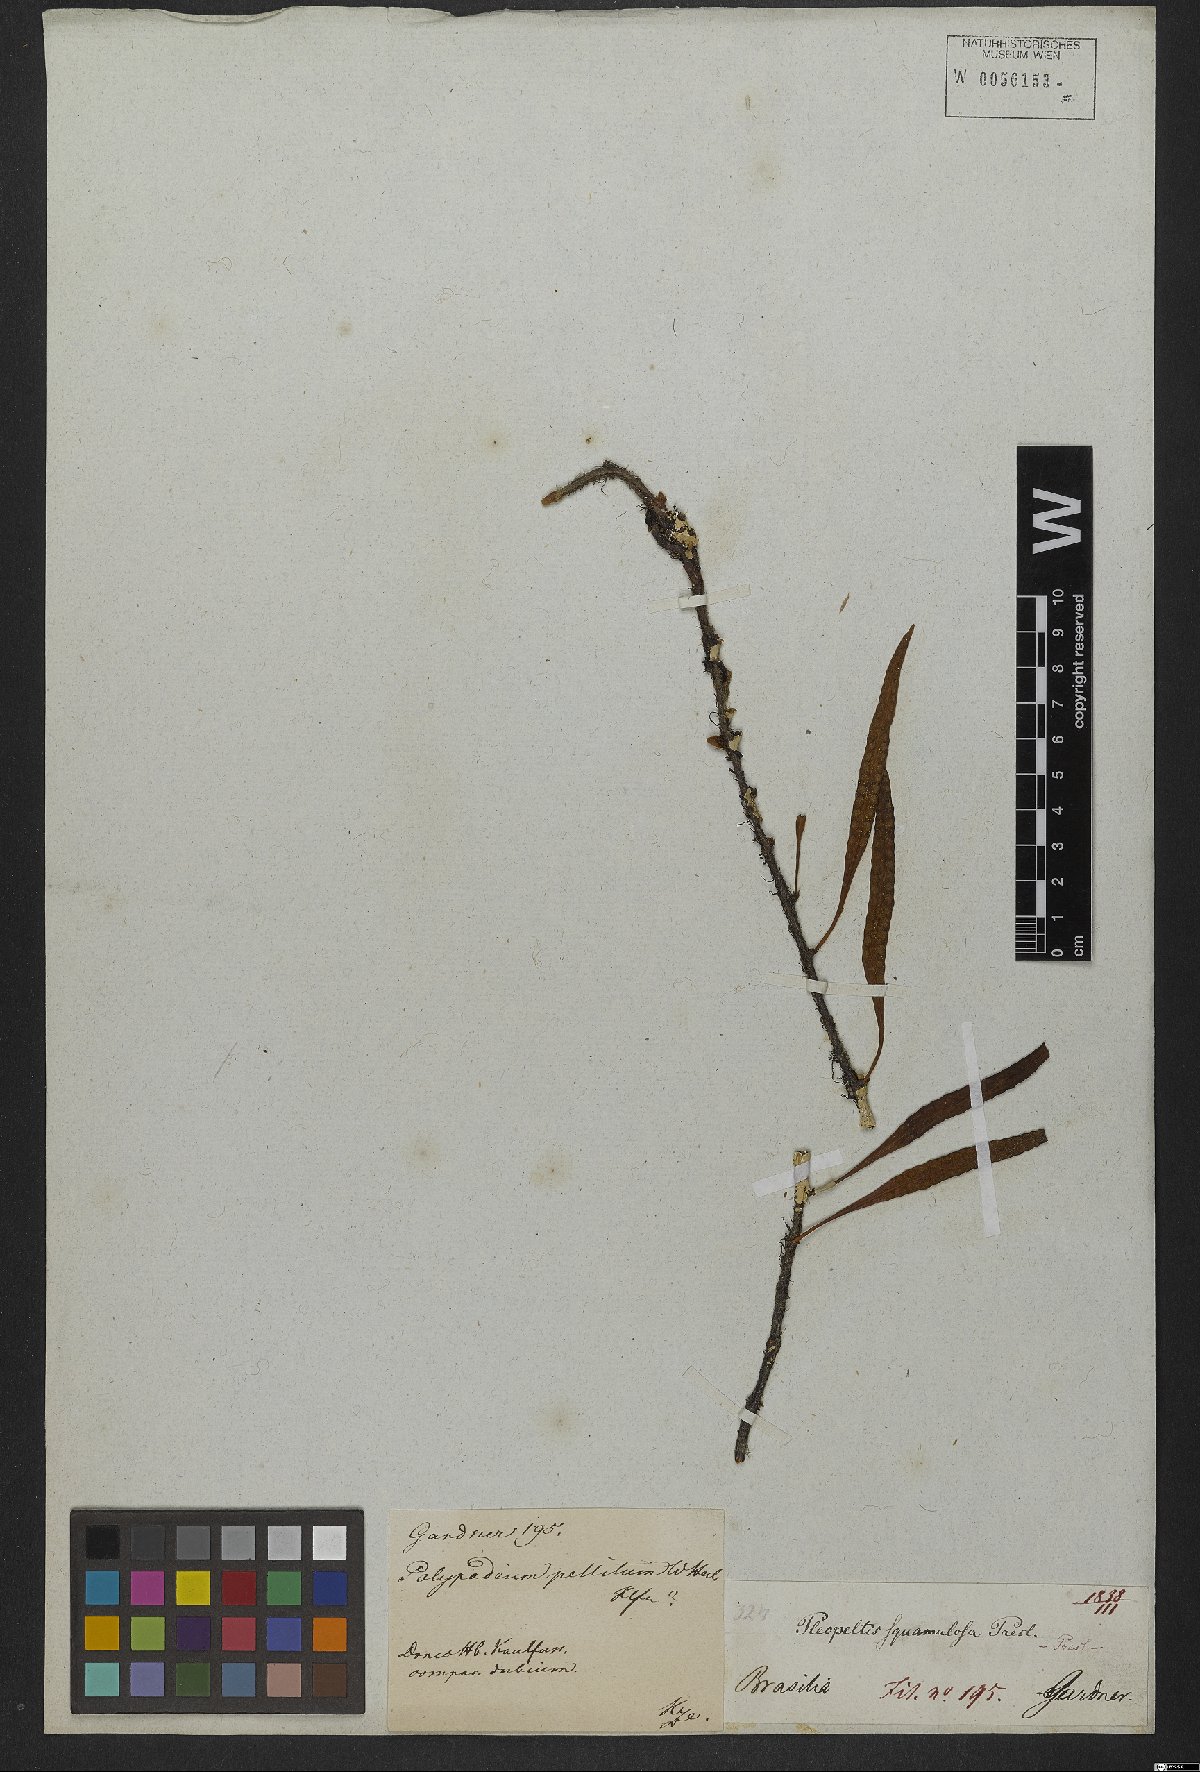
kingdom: Plantae
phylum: Tracheophyta
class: Polypodiopsida
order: Polypodiales
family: Polypodiaceae
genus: Microgramma
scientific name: Microgramma lycopodioides
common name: Bastard catclaw
